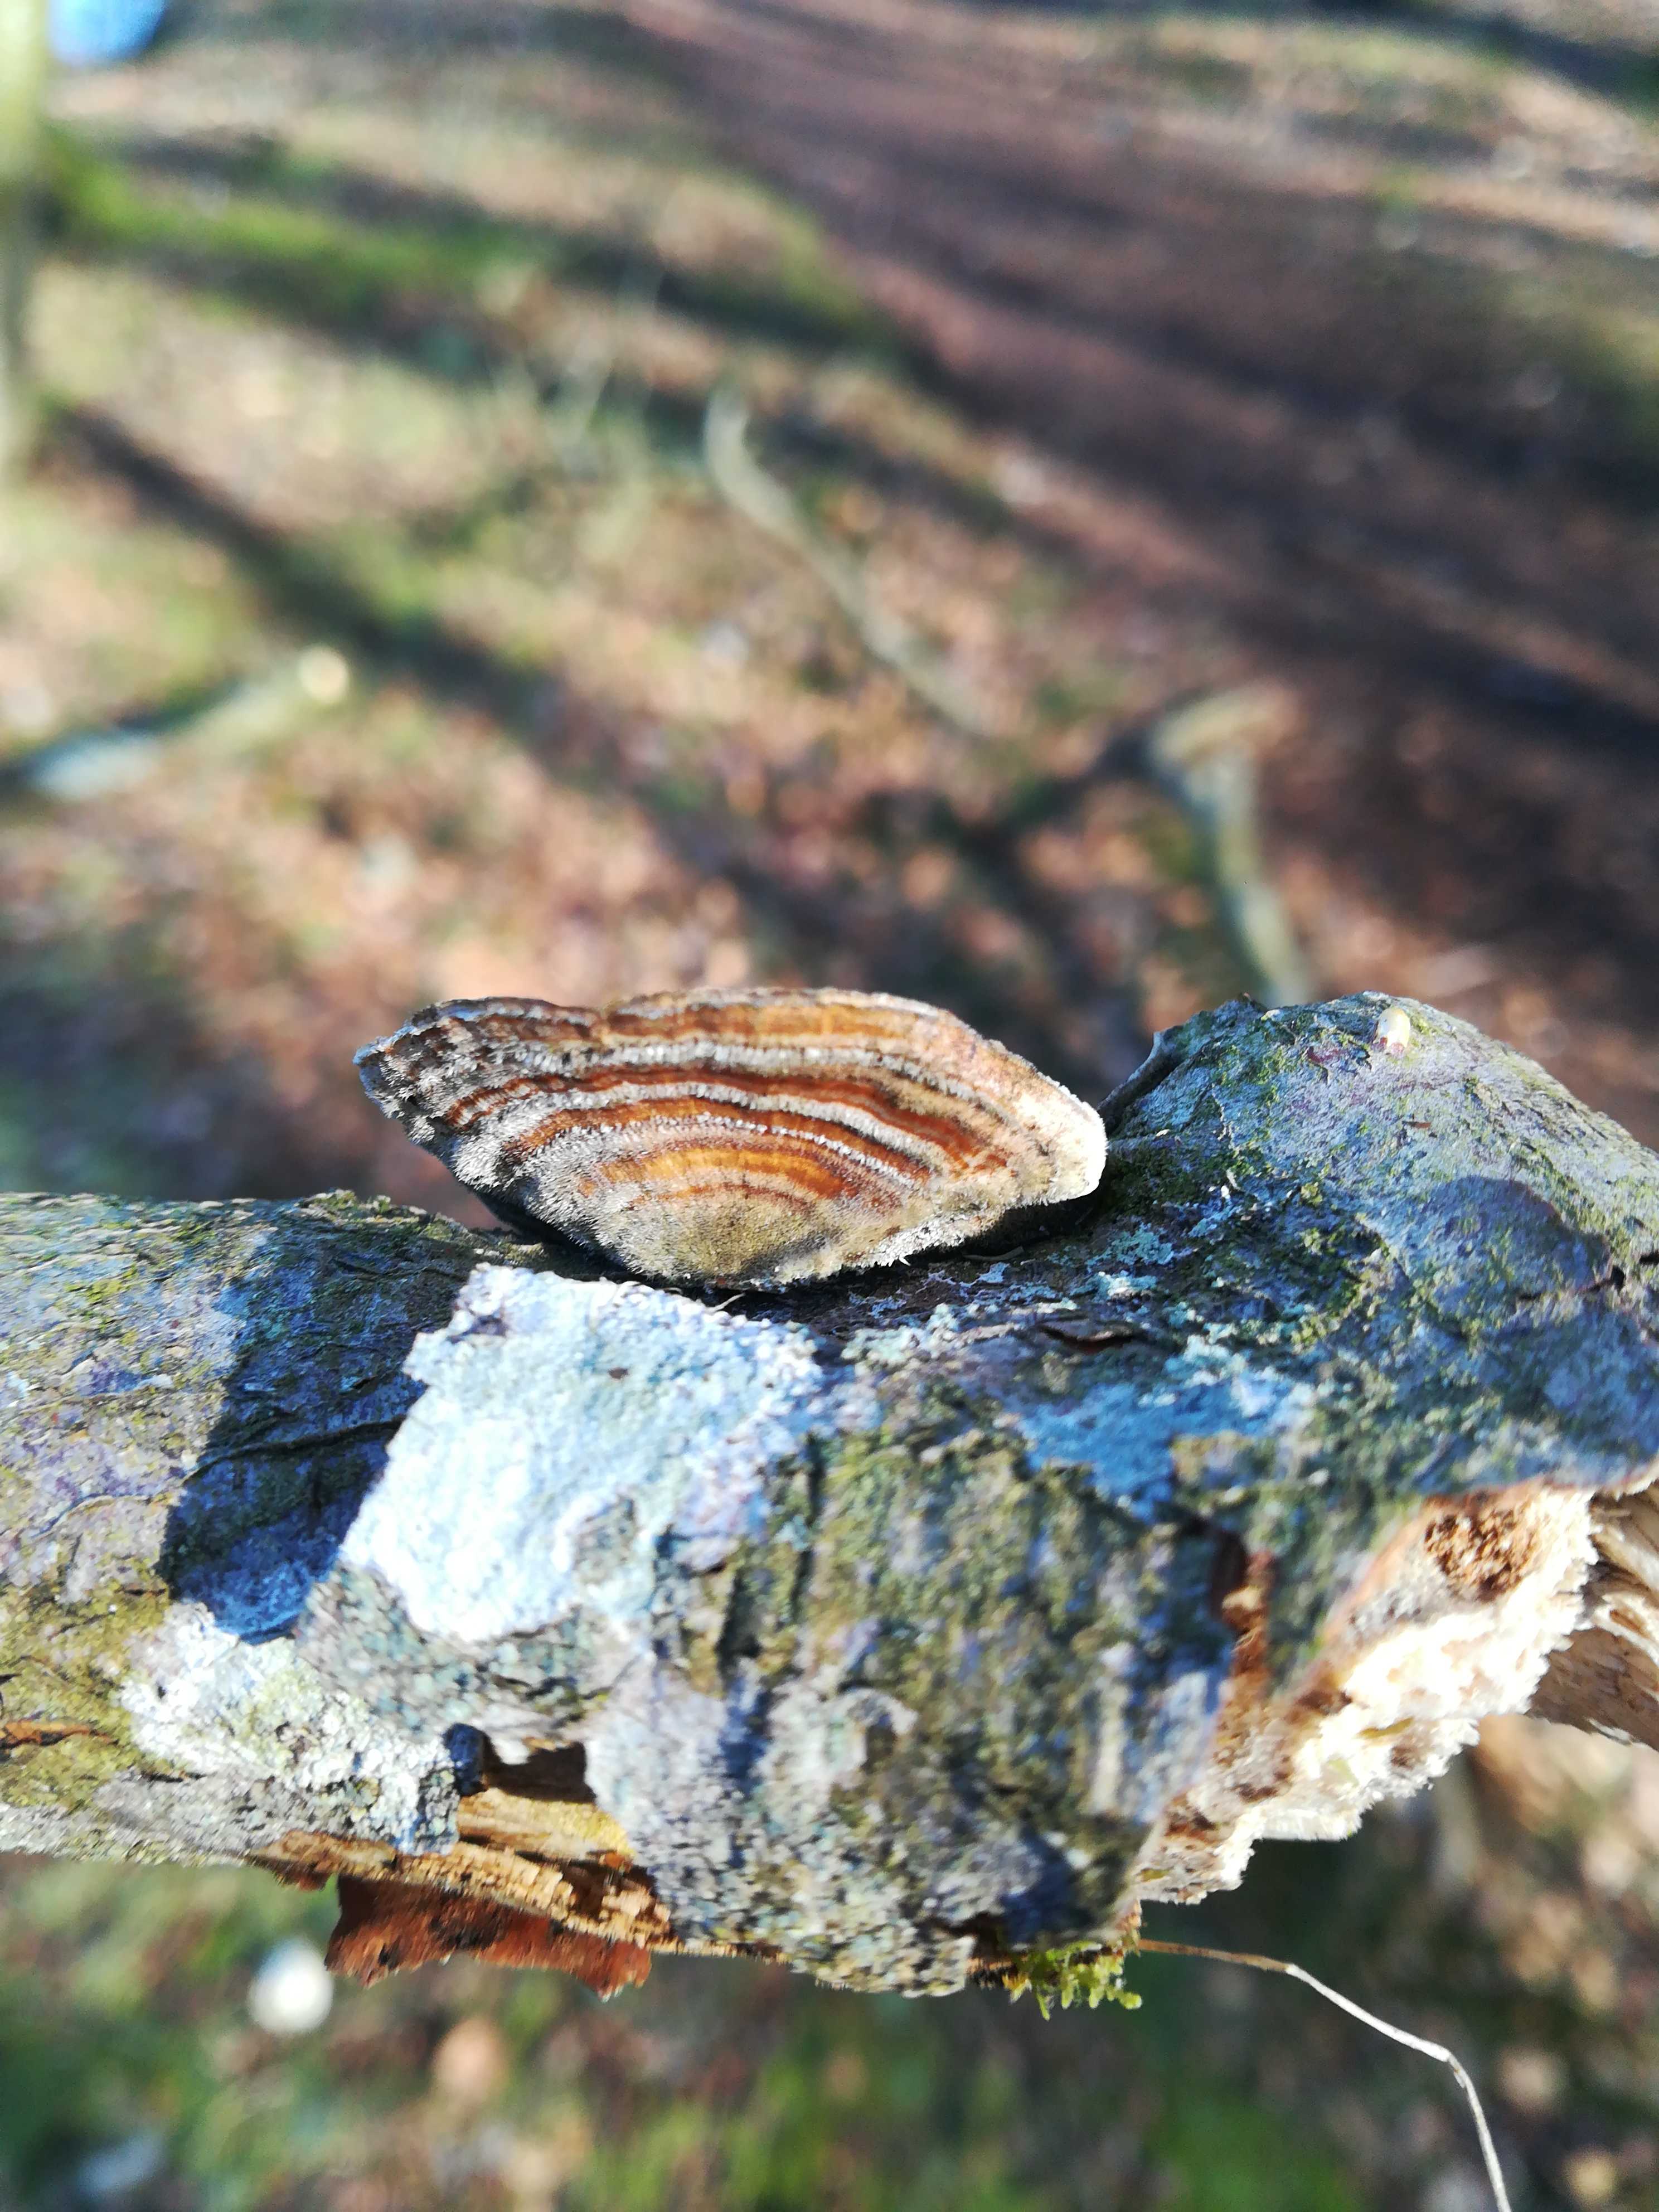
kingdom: Fungi
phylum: Basidiomycota
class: Agaricomycetes
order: Polyporales
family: Polyporaceae
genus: Trametes
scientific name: Trametes versicolor
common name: broget læderporesvamp
